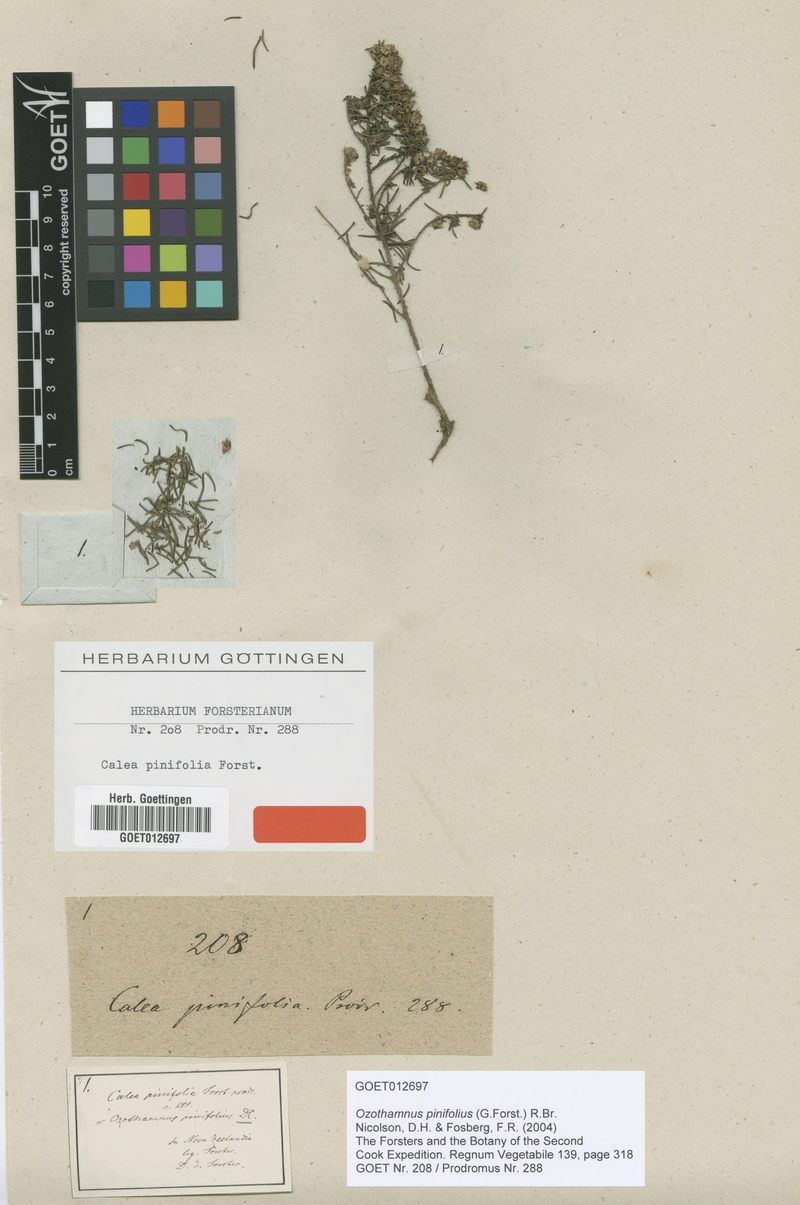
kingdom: Plantae
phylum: Tracheophyta
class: Magnoliopsida
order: Asterales
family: Asteraceae
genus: Ozothamnus
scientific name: Ozothamnus pinifolius
